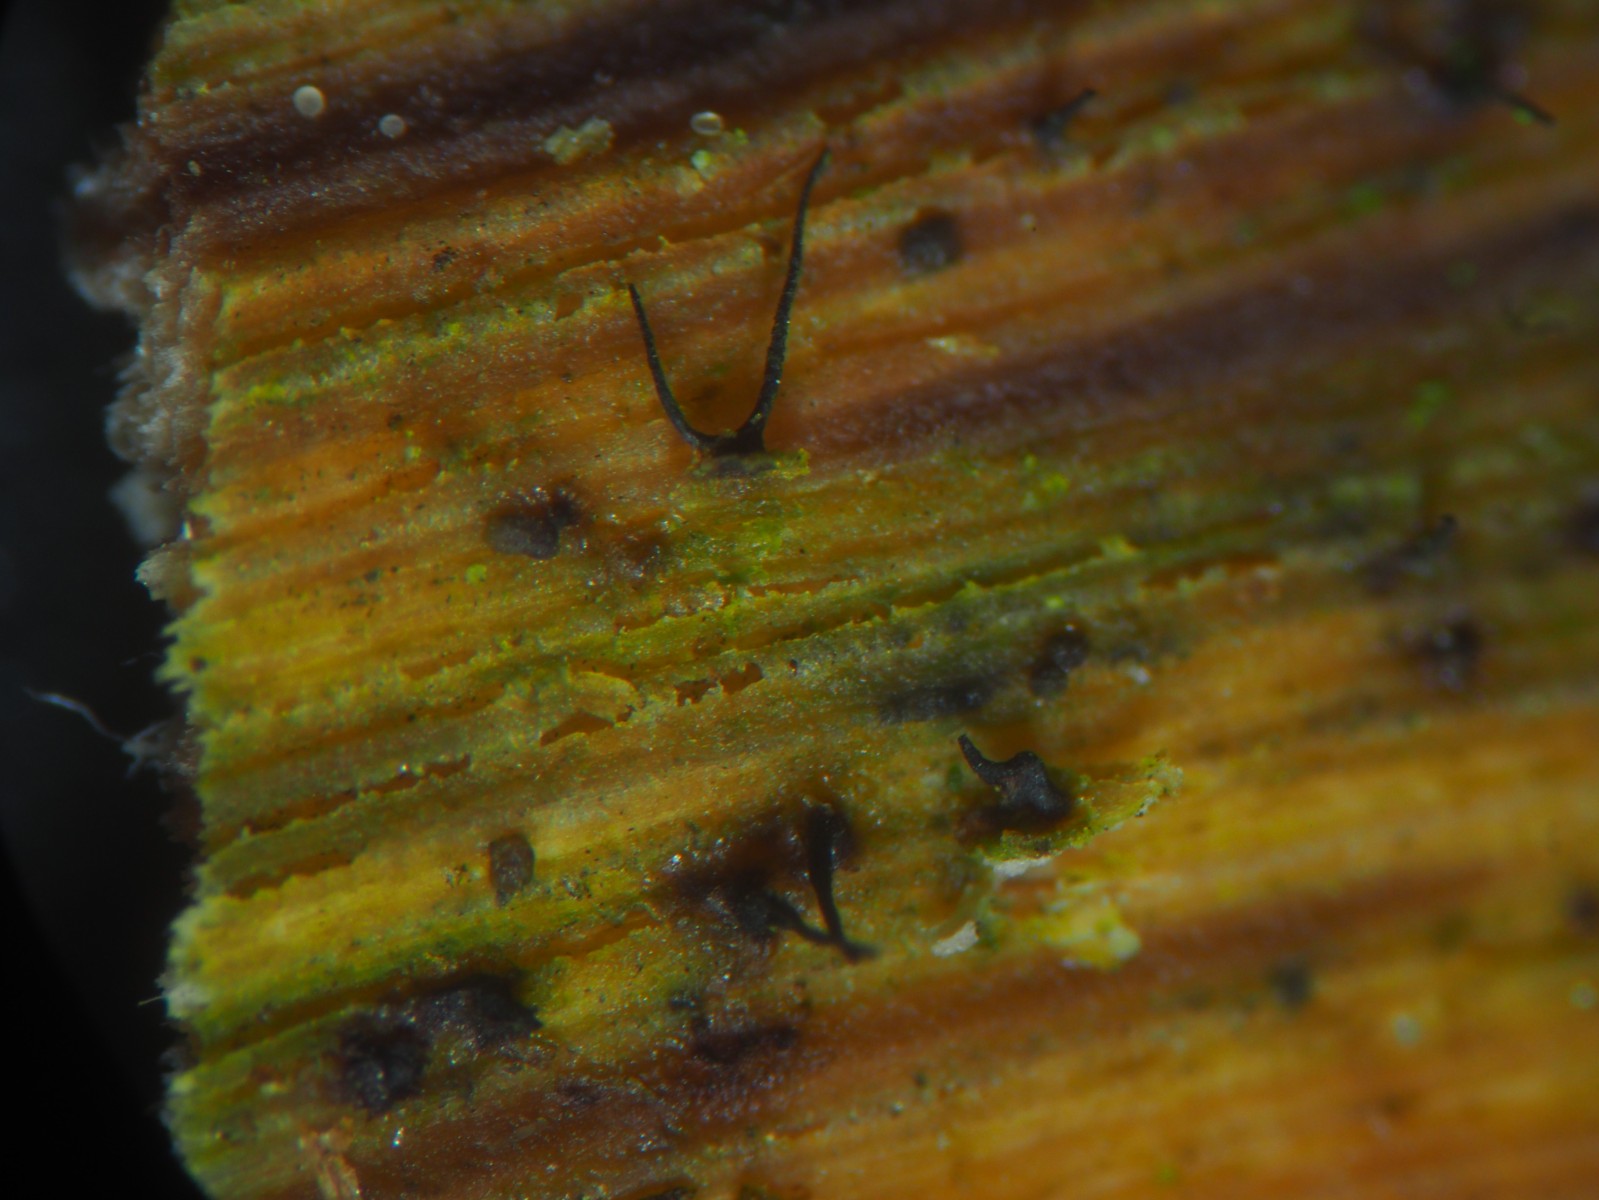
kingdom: Fungi
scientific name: Fungi
